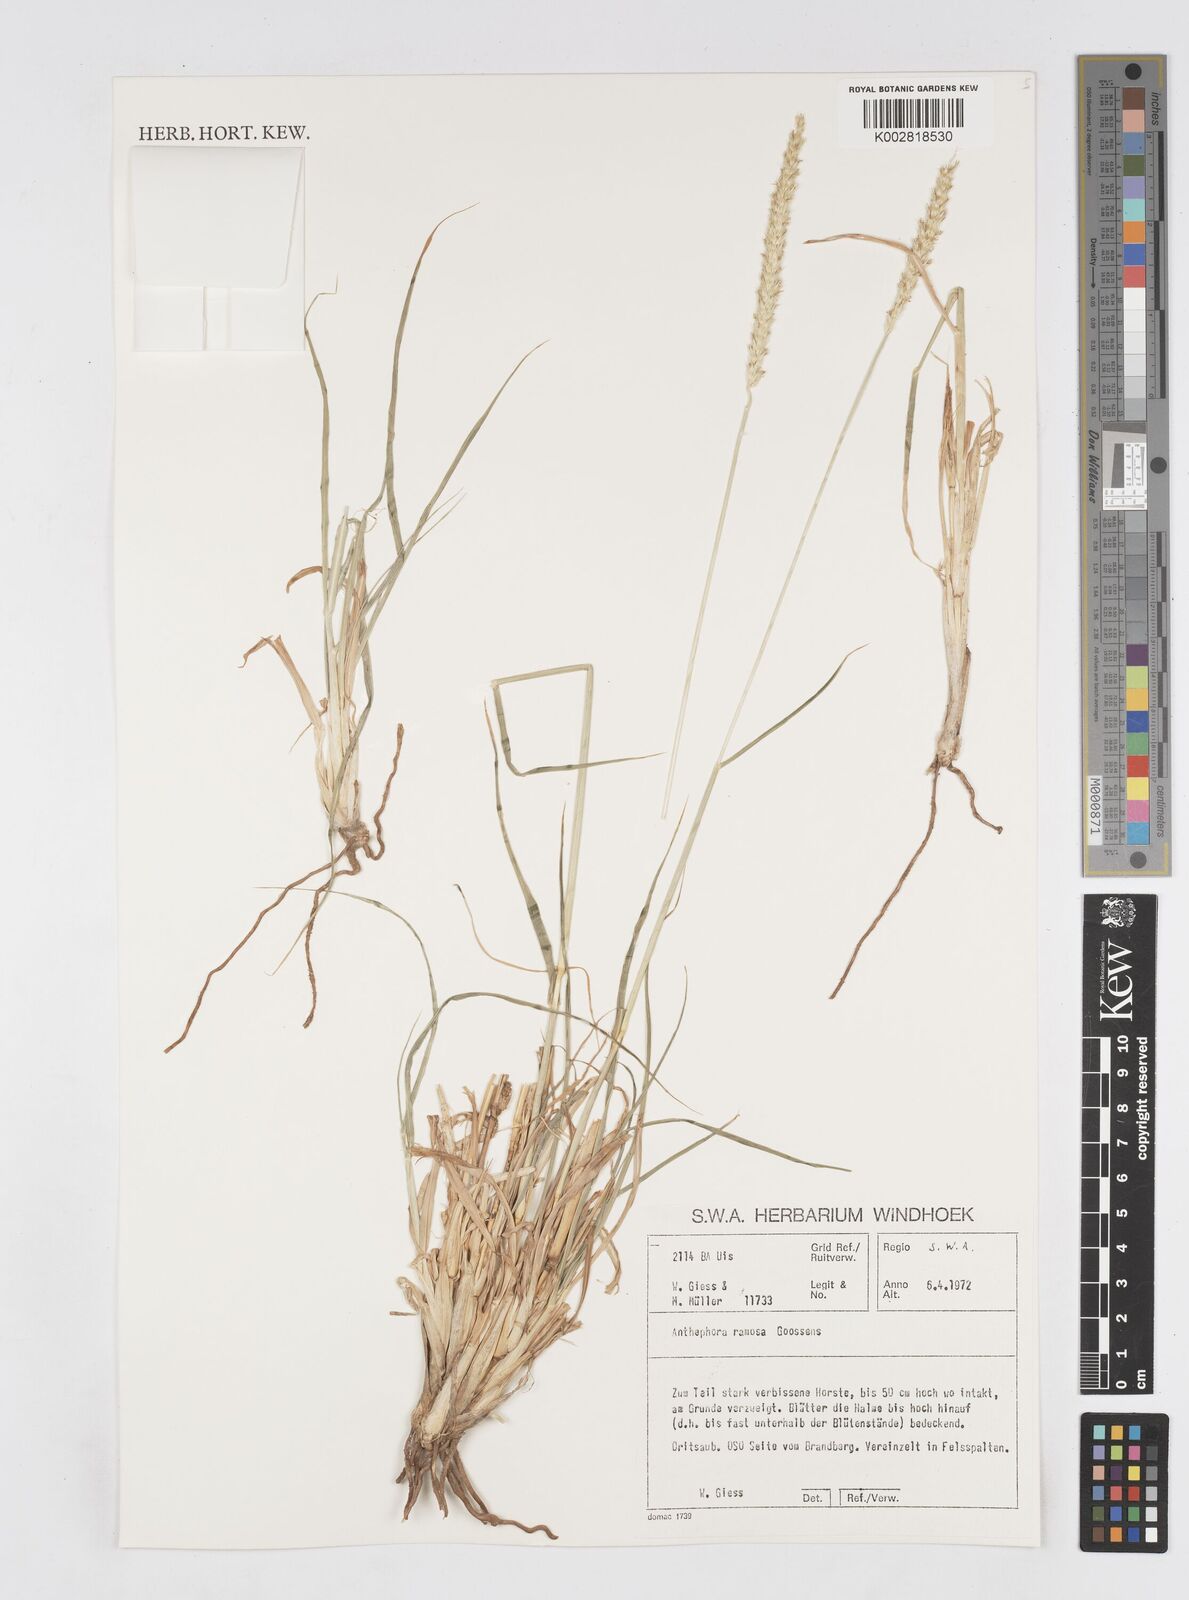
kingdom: Plantae
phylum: Tracheophyta
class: Liliopsida
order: Poales
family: Poaceae
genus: Anthephora
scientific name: Anthephora pubescens
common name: Wool grass
